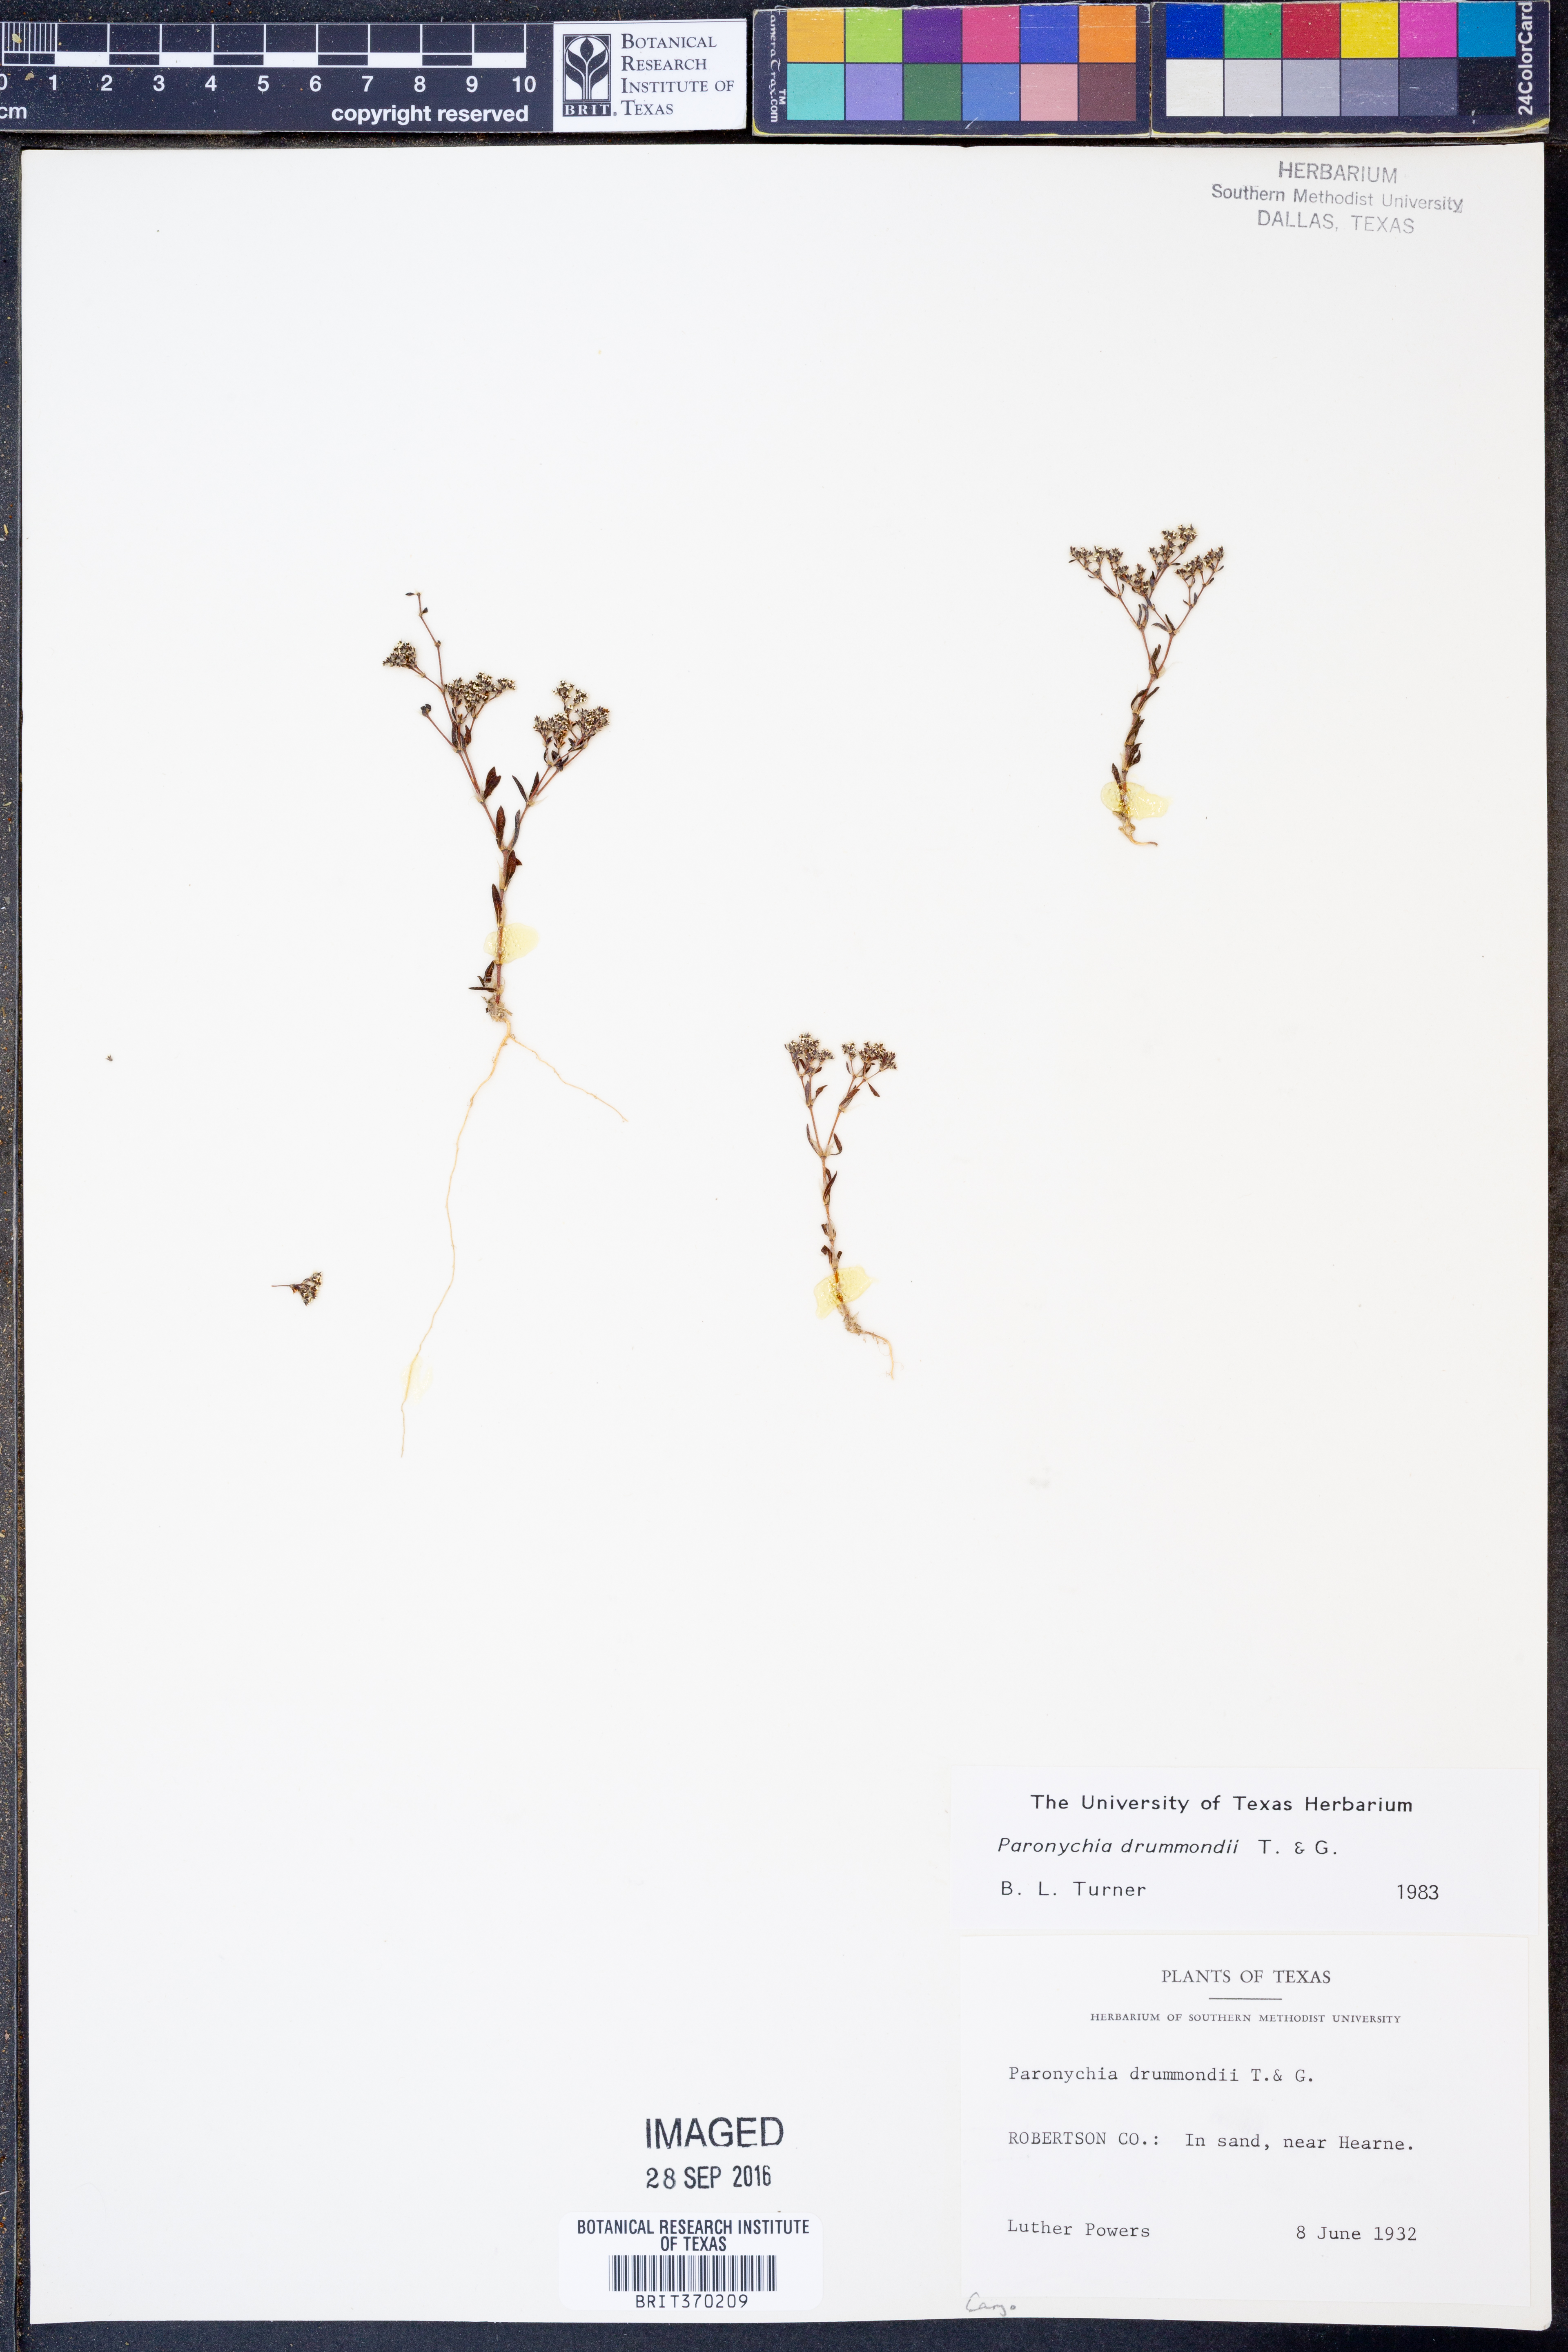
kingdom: Plantae
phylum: Tracheophyta
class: Magnoliopsida
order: Caryophyllales
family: Caryophyllaceae
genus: Paronychia
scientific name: Paronychia drummondii
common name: Drummond's nailwort
